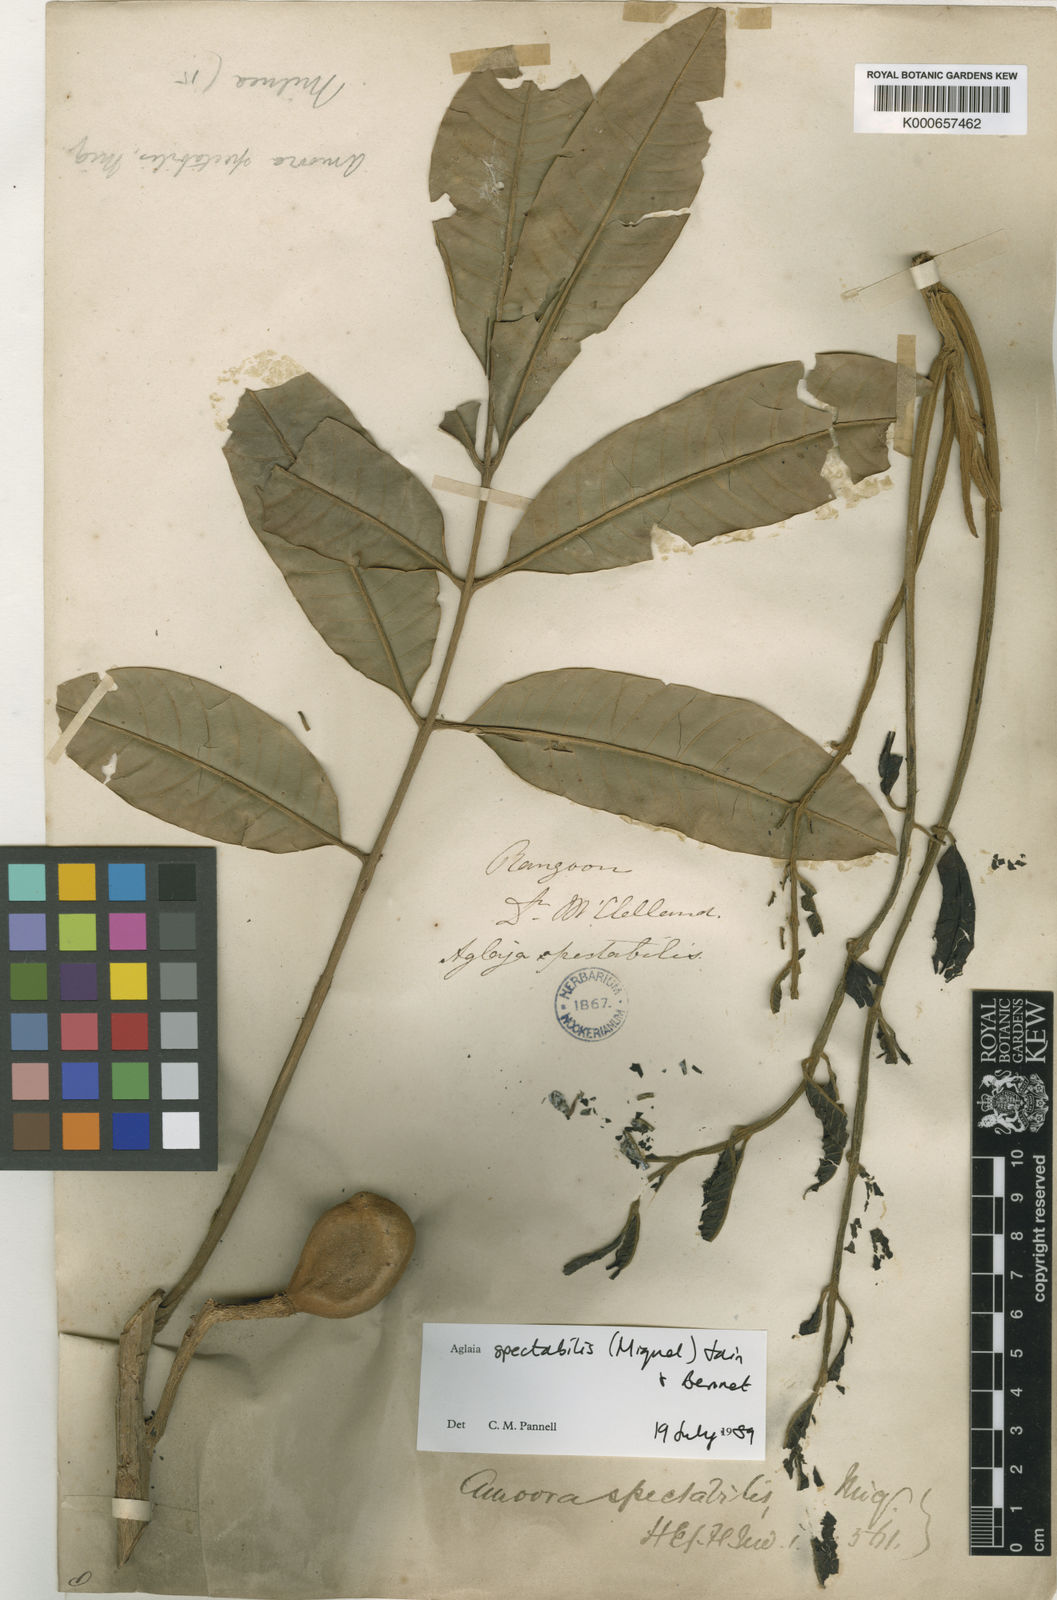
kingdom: Plantae
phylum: Tracheophyta
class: Magnoliopsida
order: Sapindales
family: Meliaceae
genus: Aglaia
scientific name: Aglaia spectabilis
